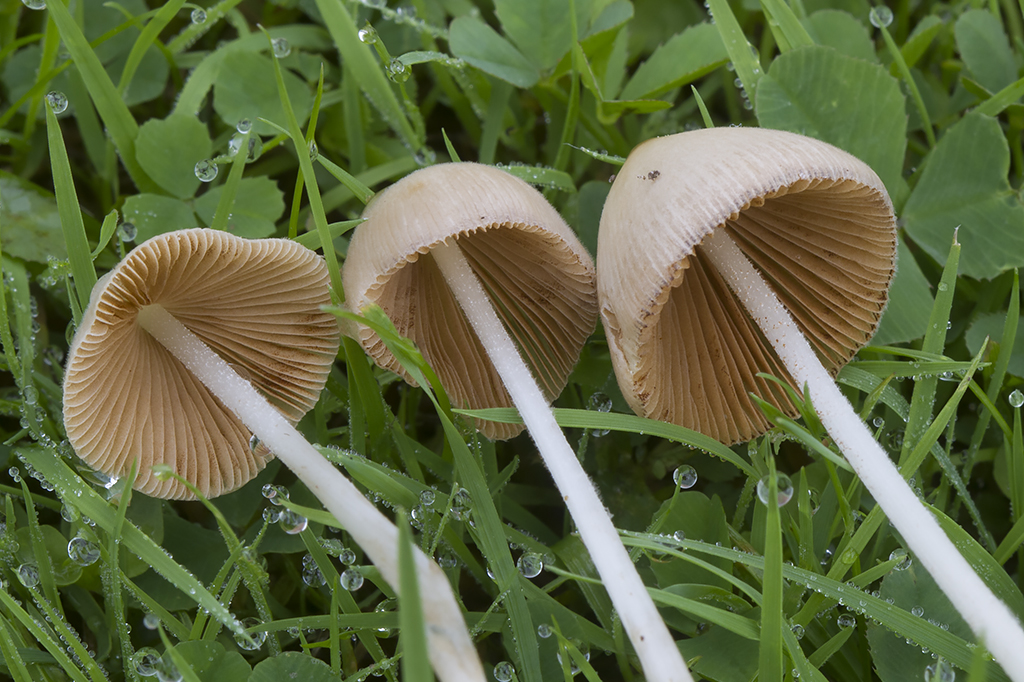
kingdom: Fungi
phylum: Basidiomycota
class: Agaricomycetes
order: Agaricales
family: Bolbitiaceae
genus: Conocybe
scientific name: Conocybe apala
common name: mælkehvid keglehat
